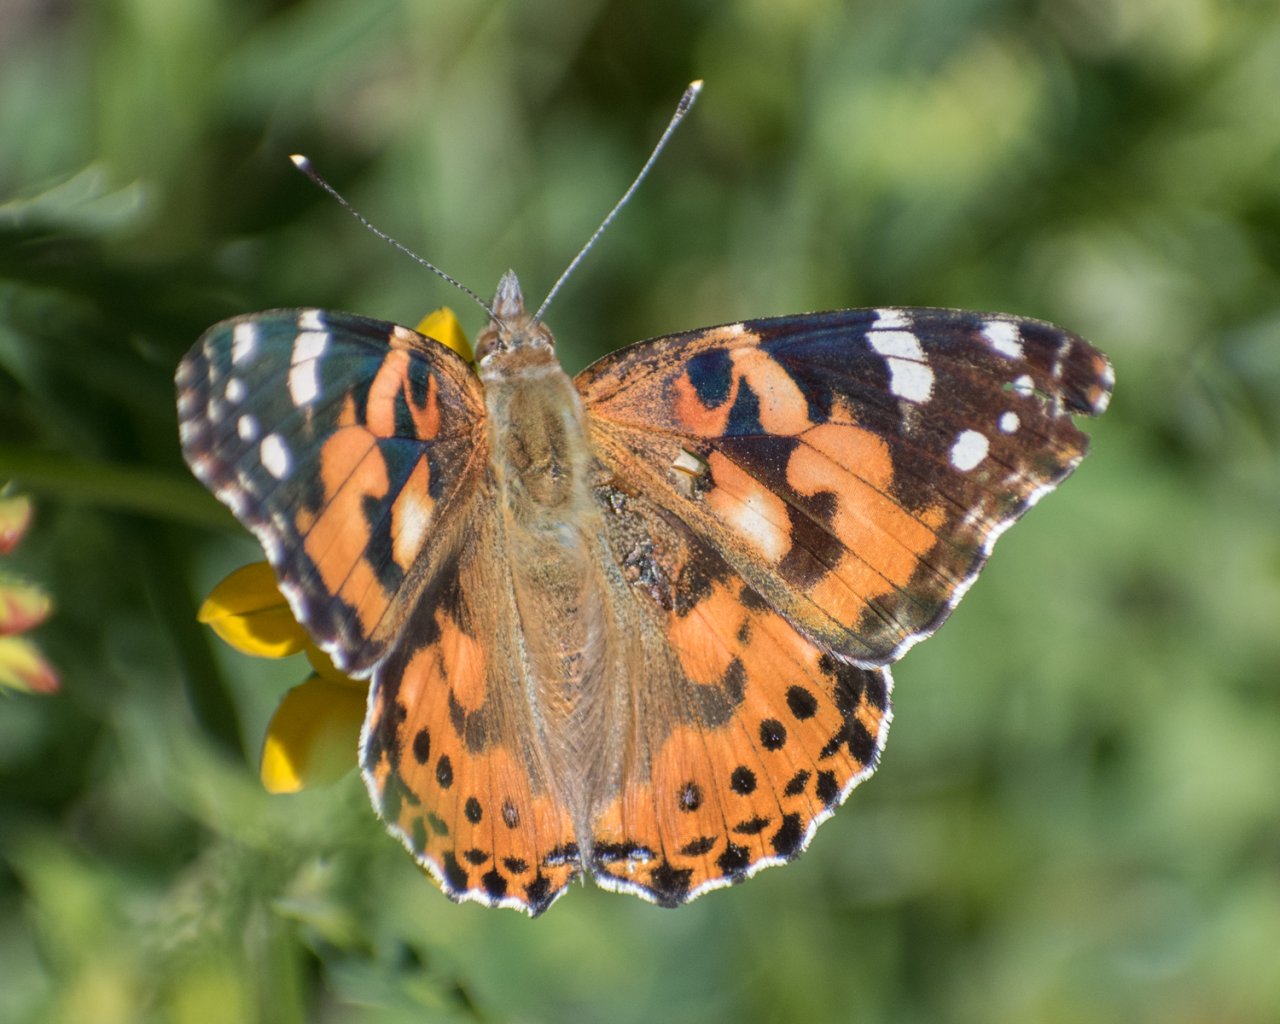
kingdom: Animalia
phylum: Arthropoda
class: Insecta
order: Lepidoptera
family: Nymphalidae
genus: Vanessa
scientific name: Vanessa cardui
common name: Painted Lady
